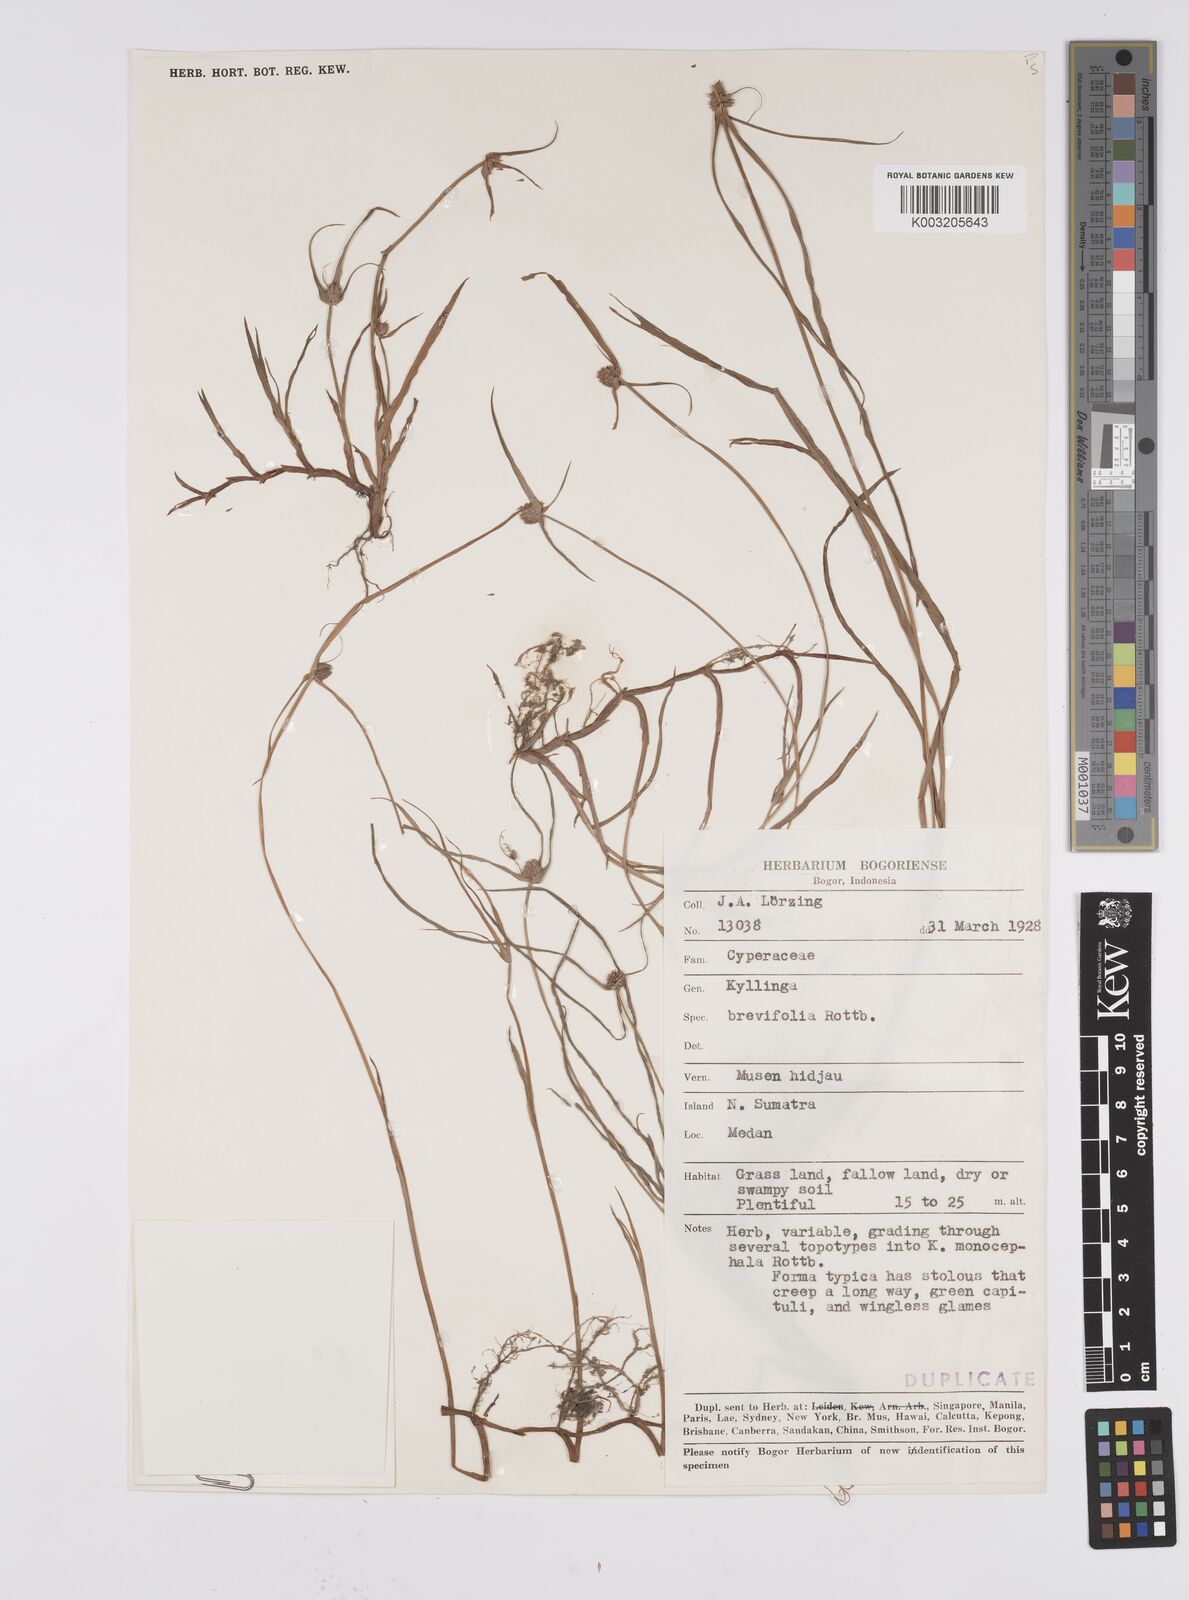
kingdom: Plantae
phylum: Tracheophyta
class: Liliopsida
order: Poales
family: Cyperaceae
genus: Cyperus
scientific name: Cyperus brevifolius
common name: Globe kyllinga
